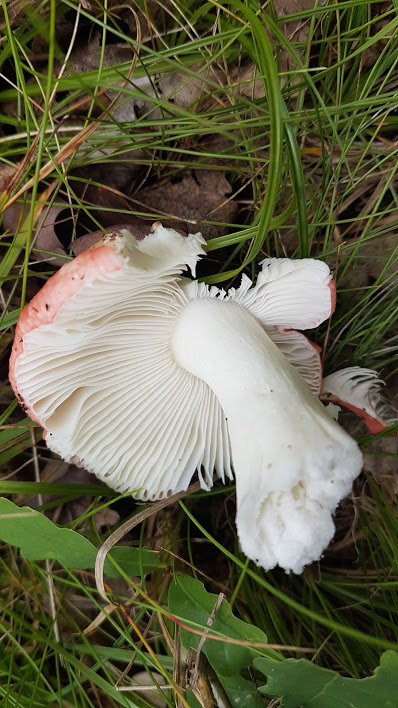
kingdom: Fungi
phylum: Basidiomycota
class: Agaricomycetes
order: Russulales
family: Russulaceae
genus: Russula
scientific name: Russula
